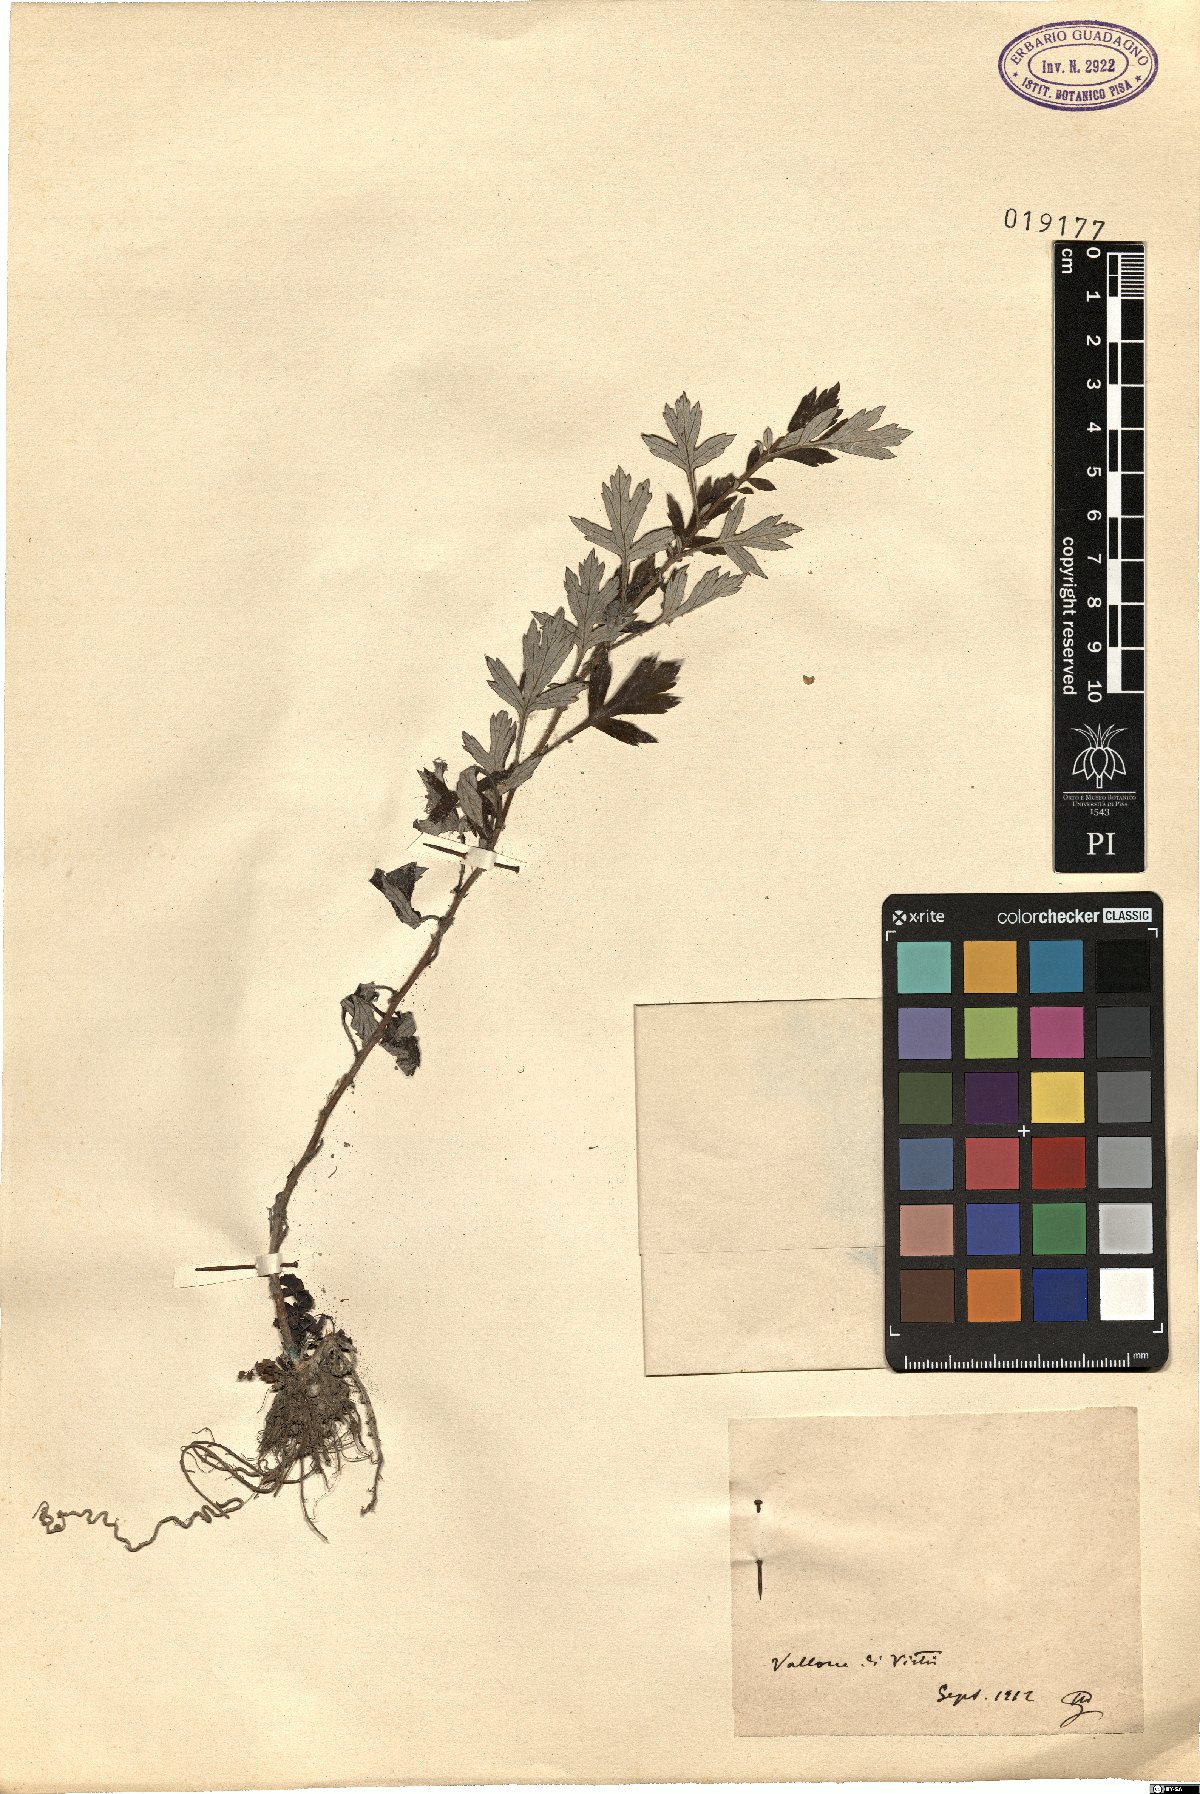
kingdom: Plantae
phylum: Tracheophyta
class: Magnoliopsida
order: Asterales
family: Asteraceae
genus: Artemisia
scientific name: Artemisia
